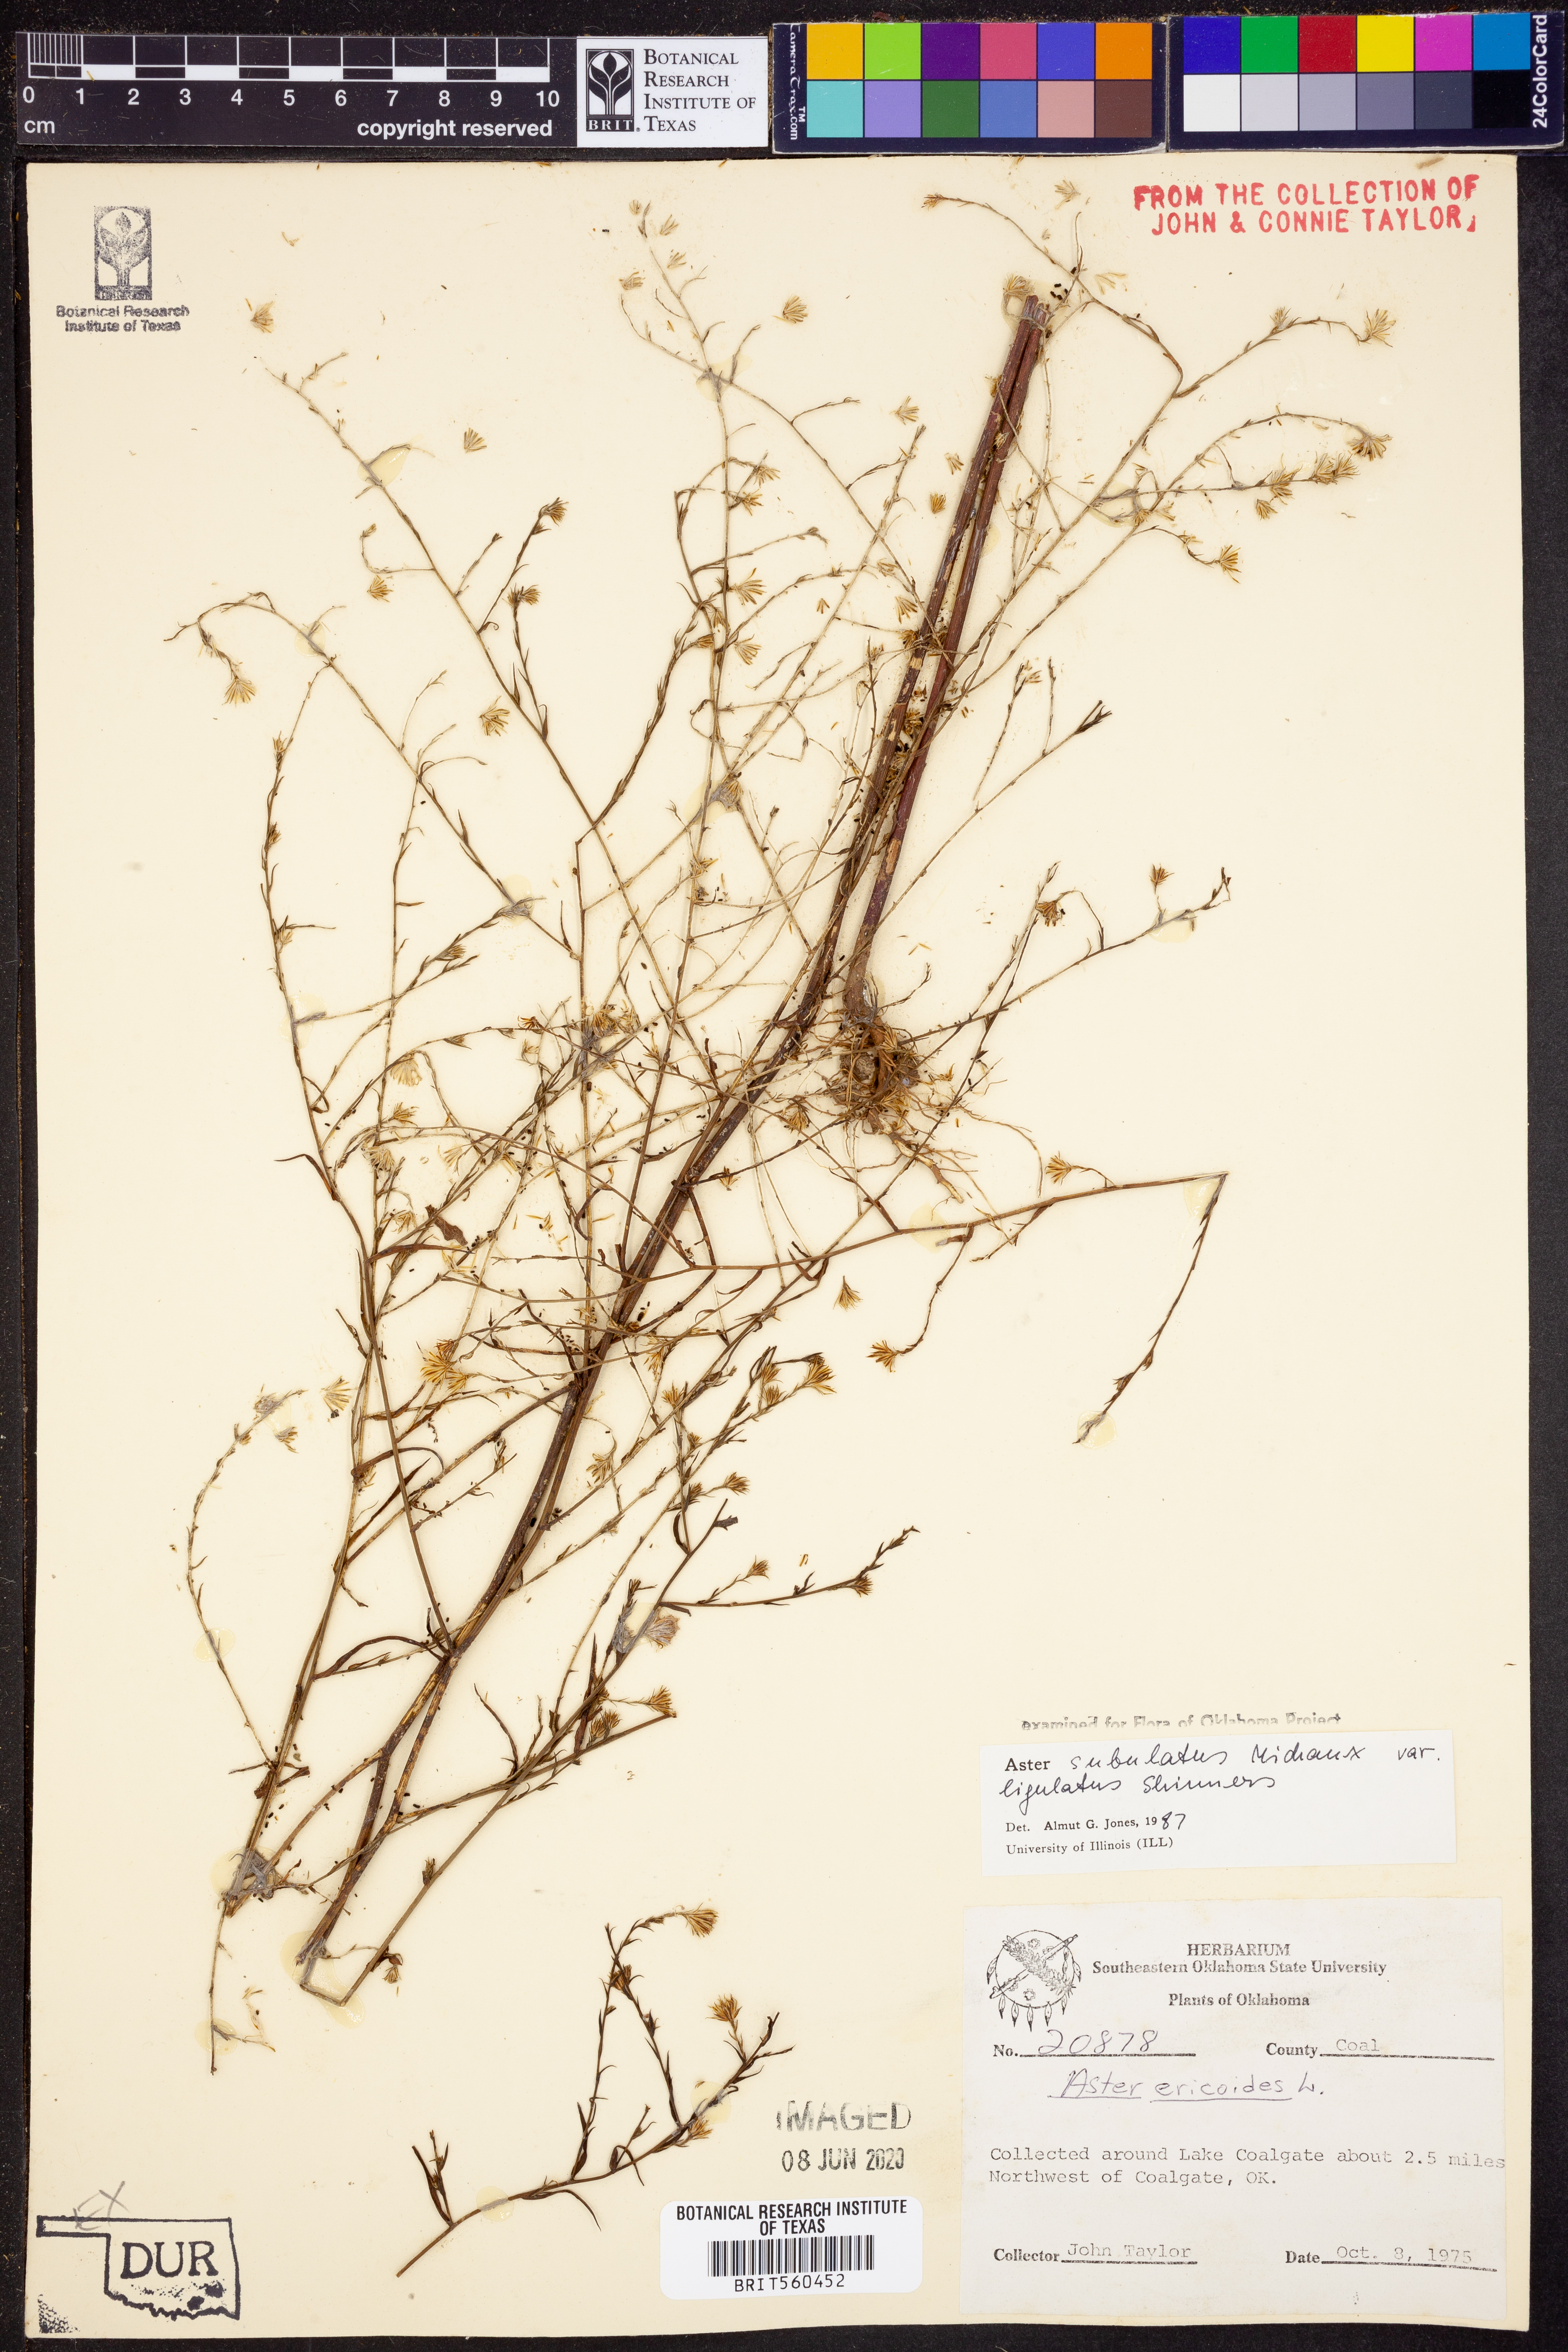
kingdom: Plantae
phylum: Tracheophyta
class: Magnoliopsida
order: Asterales
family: Asteraceae
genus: Symphyotrichum
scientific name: Symphyotrichum divaricatum
